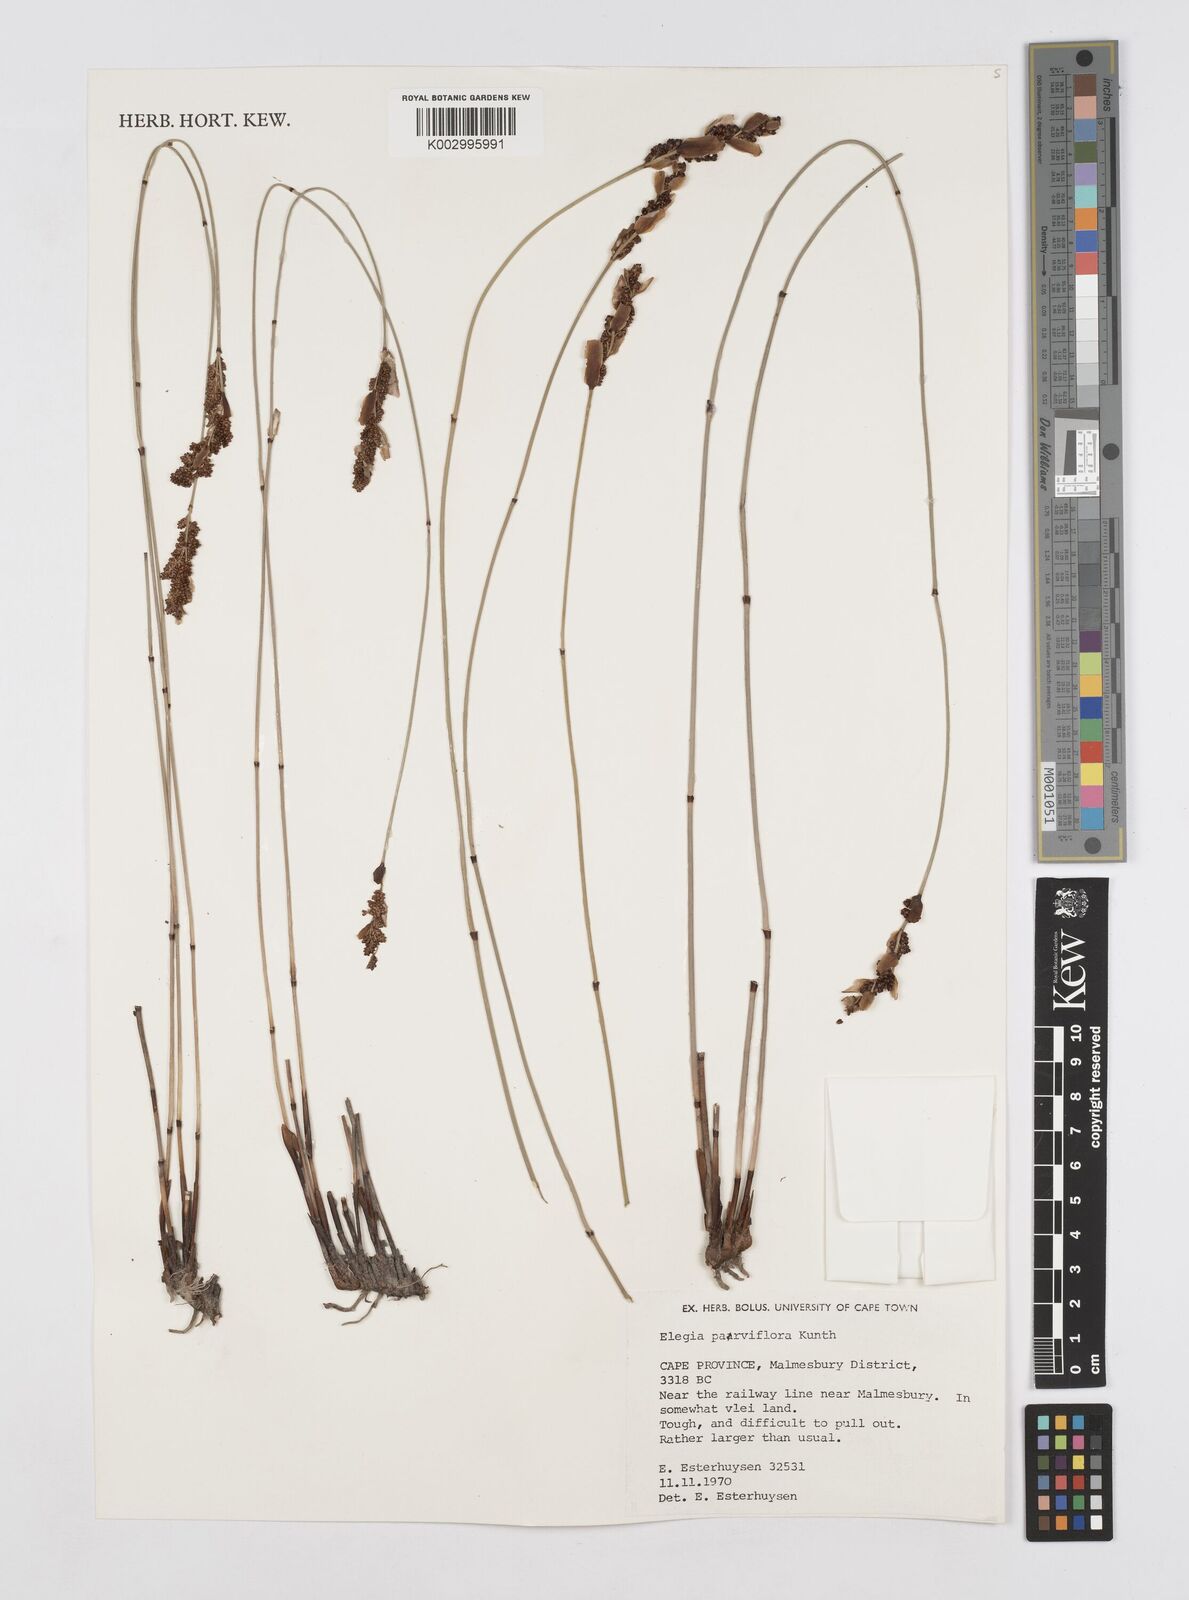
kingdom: Plantae
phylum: Tracheophyta
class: Liliopsida
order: Poales
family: Restionaceae
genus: Cannomois
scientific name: Cannomois parviflora
